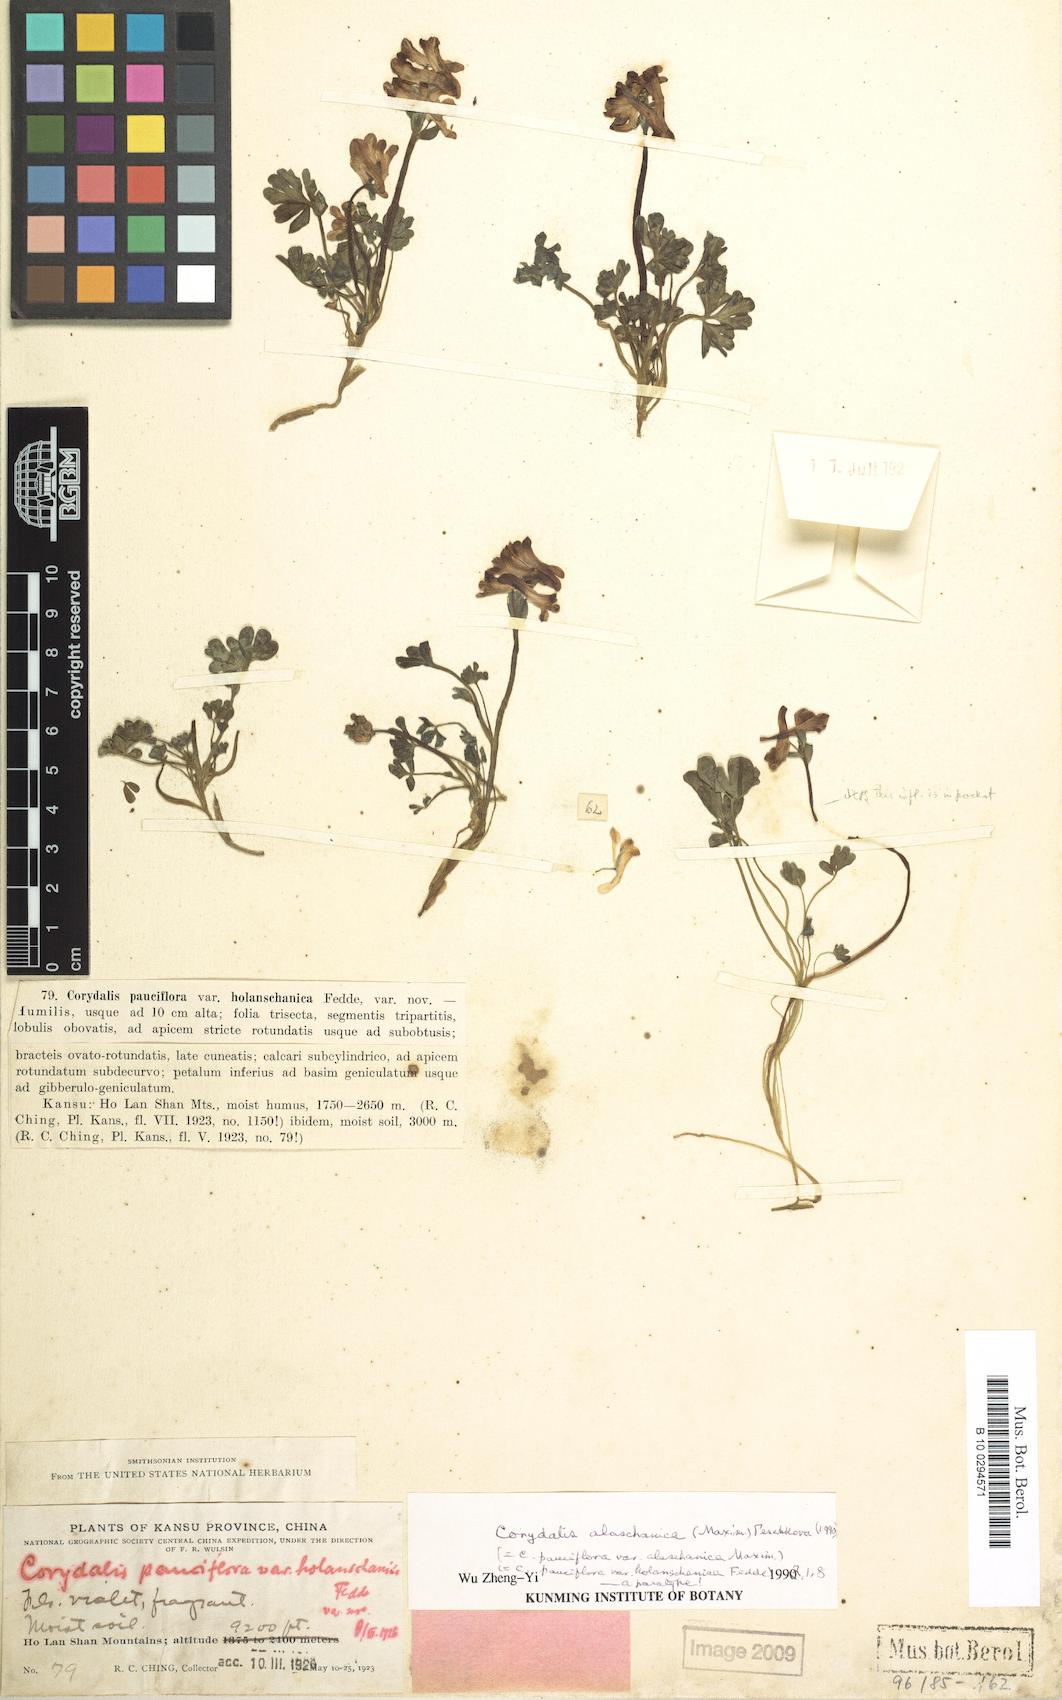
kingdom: Plantae
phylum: Tracheophyta
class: Magnoliopsida
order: Ranunculales
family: Papaveraceae
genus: Corydalis
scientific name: Corydalis alaschanica
